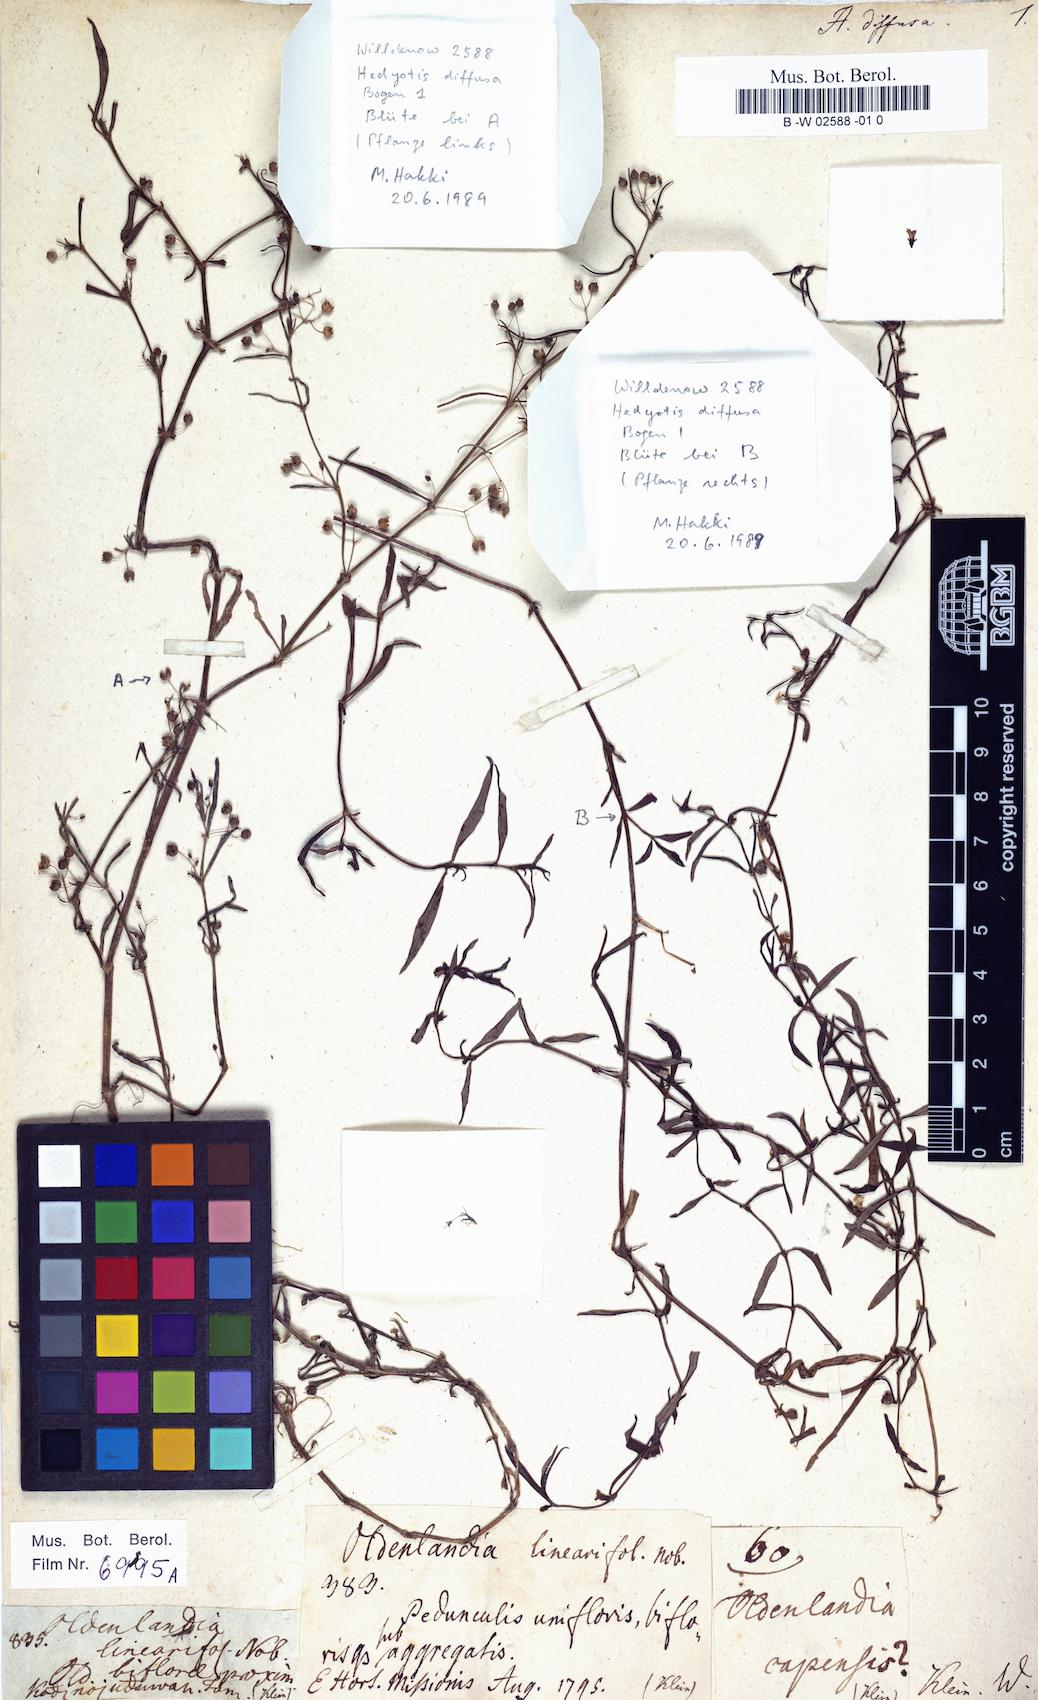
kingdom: Plantae
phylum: Tracheophyta
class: Magnoliopsida
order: Gentianales
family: Rubiaceae
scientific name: Rubiaceae
